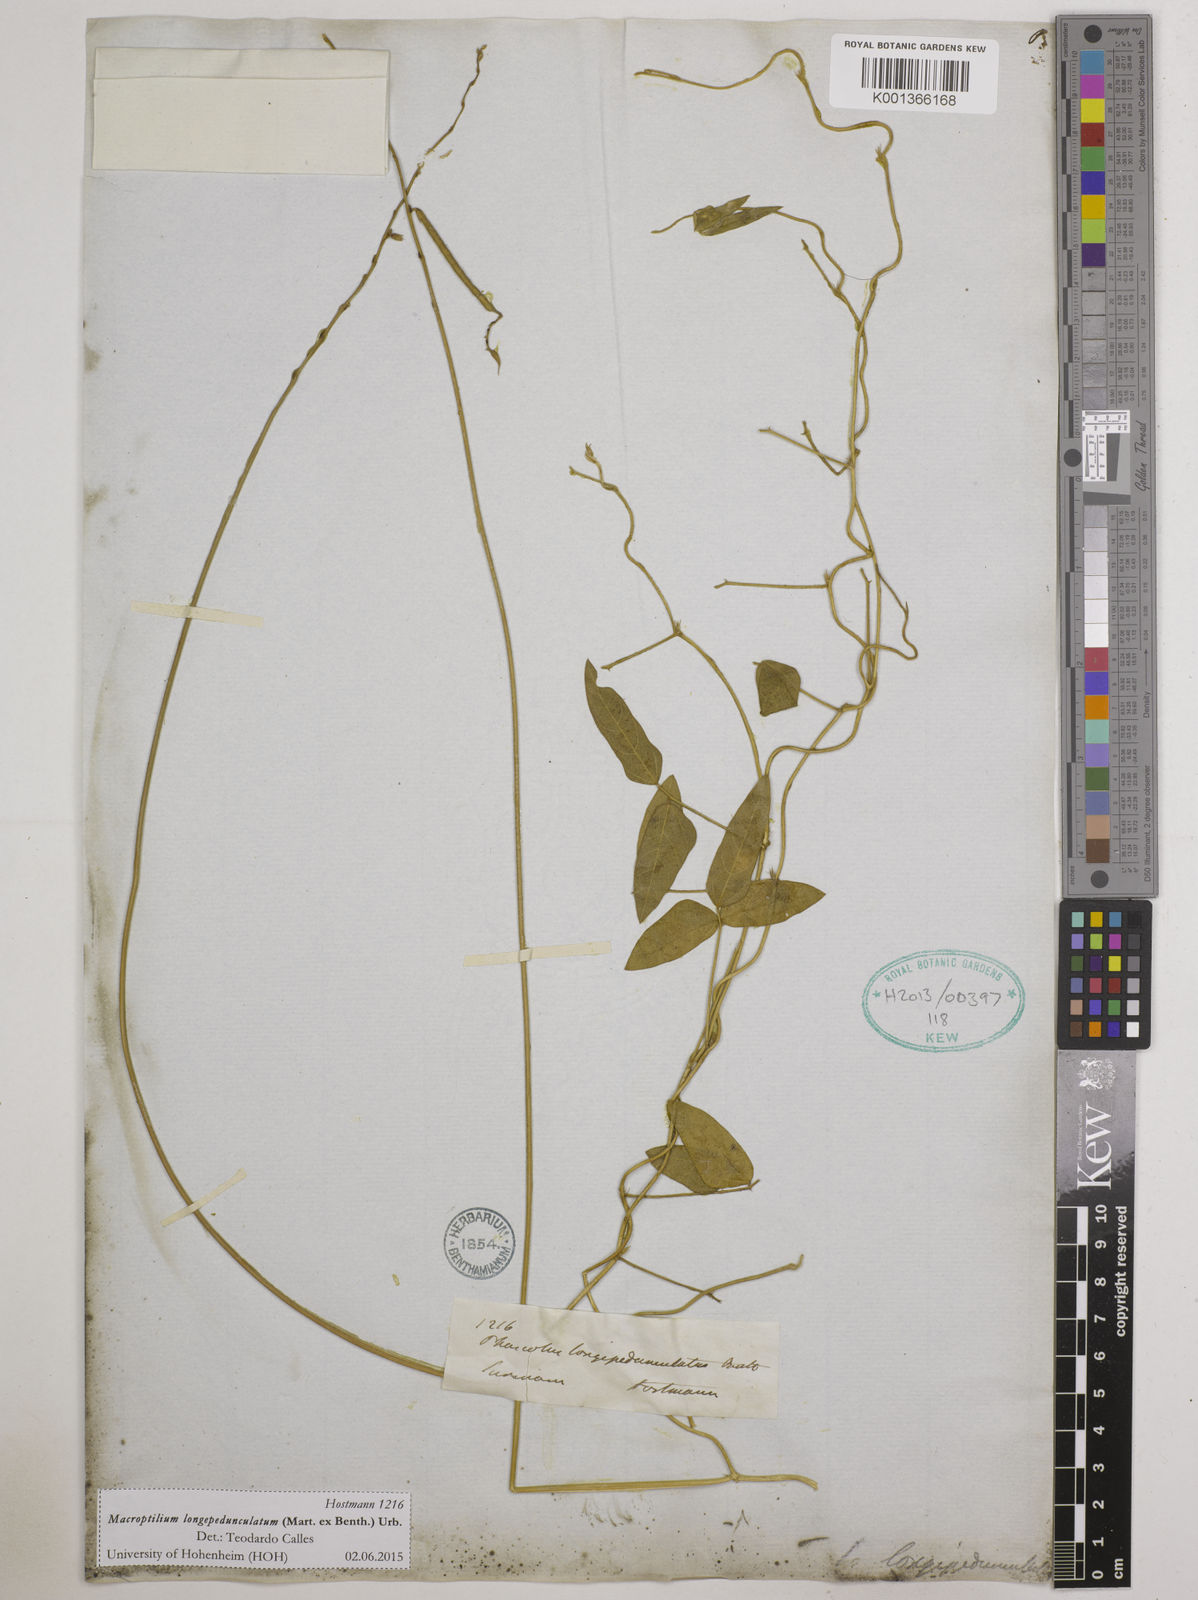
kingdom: Plantae
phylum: Tracheophyta
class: Magnoliopsida
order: Fabales
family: Fabaceae
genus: Macroptilium
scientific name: Macroptilium longepedunculatum
